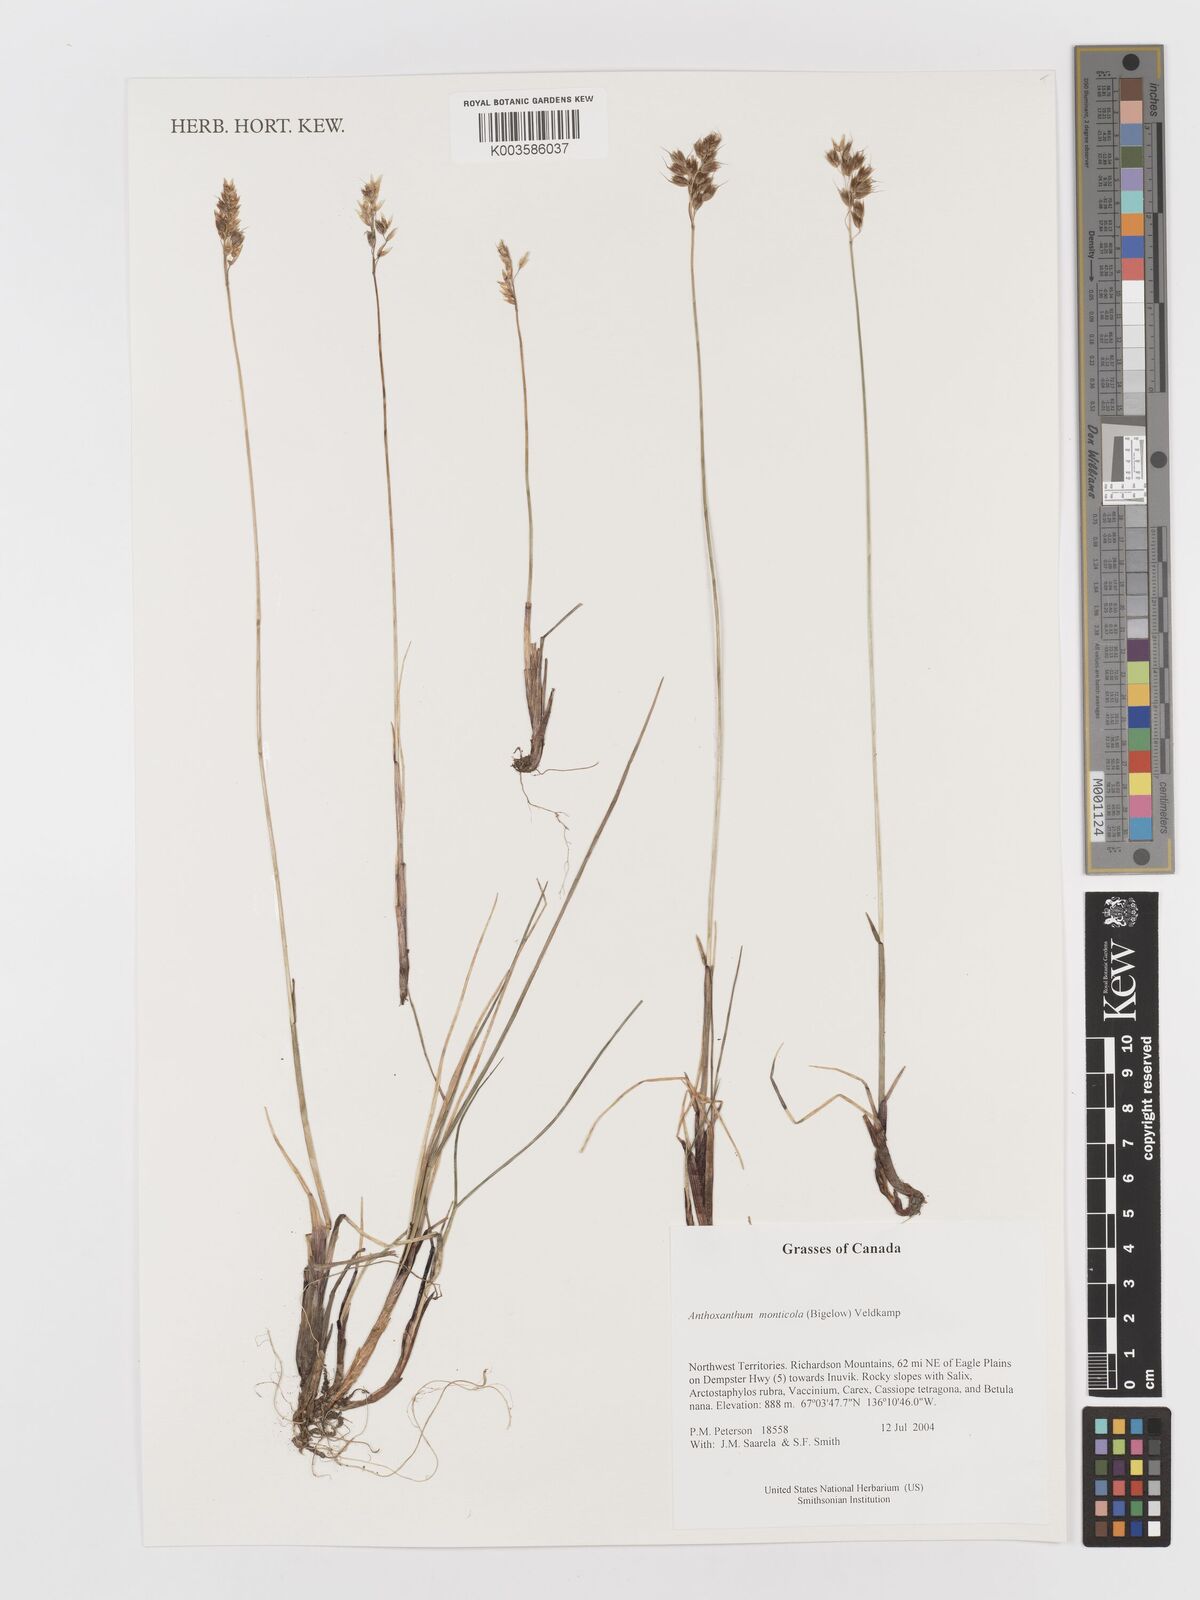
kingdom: Plantae
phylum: Tracheophyta
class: Liliopsida
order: Poales
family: Poaceae
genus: Anthoxanthum
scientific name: Anthoxanthum monticola
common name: Alpine sweetgrass
